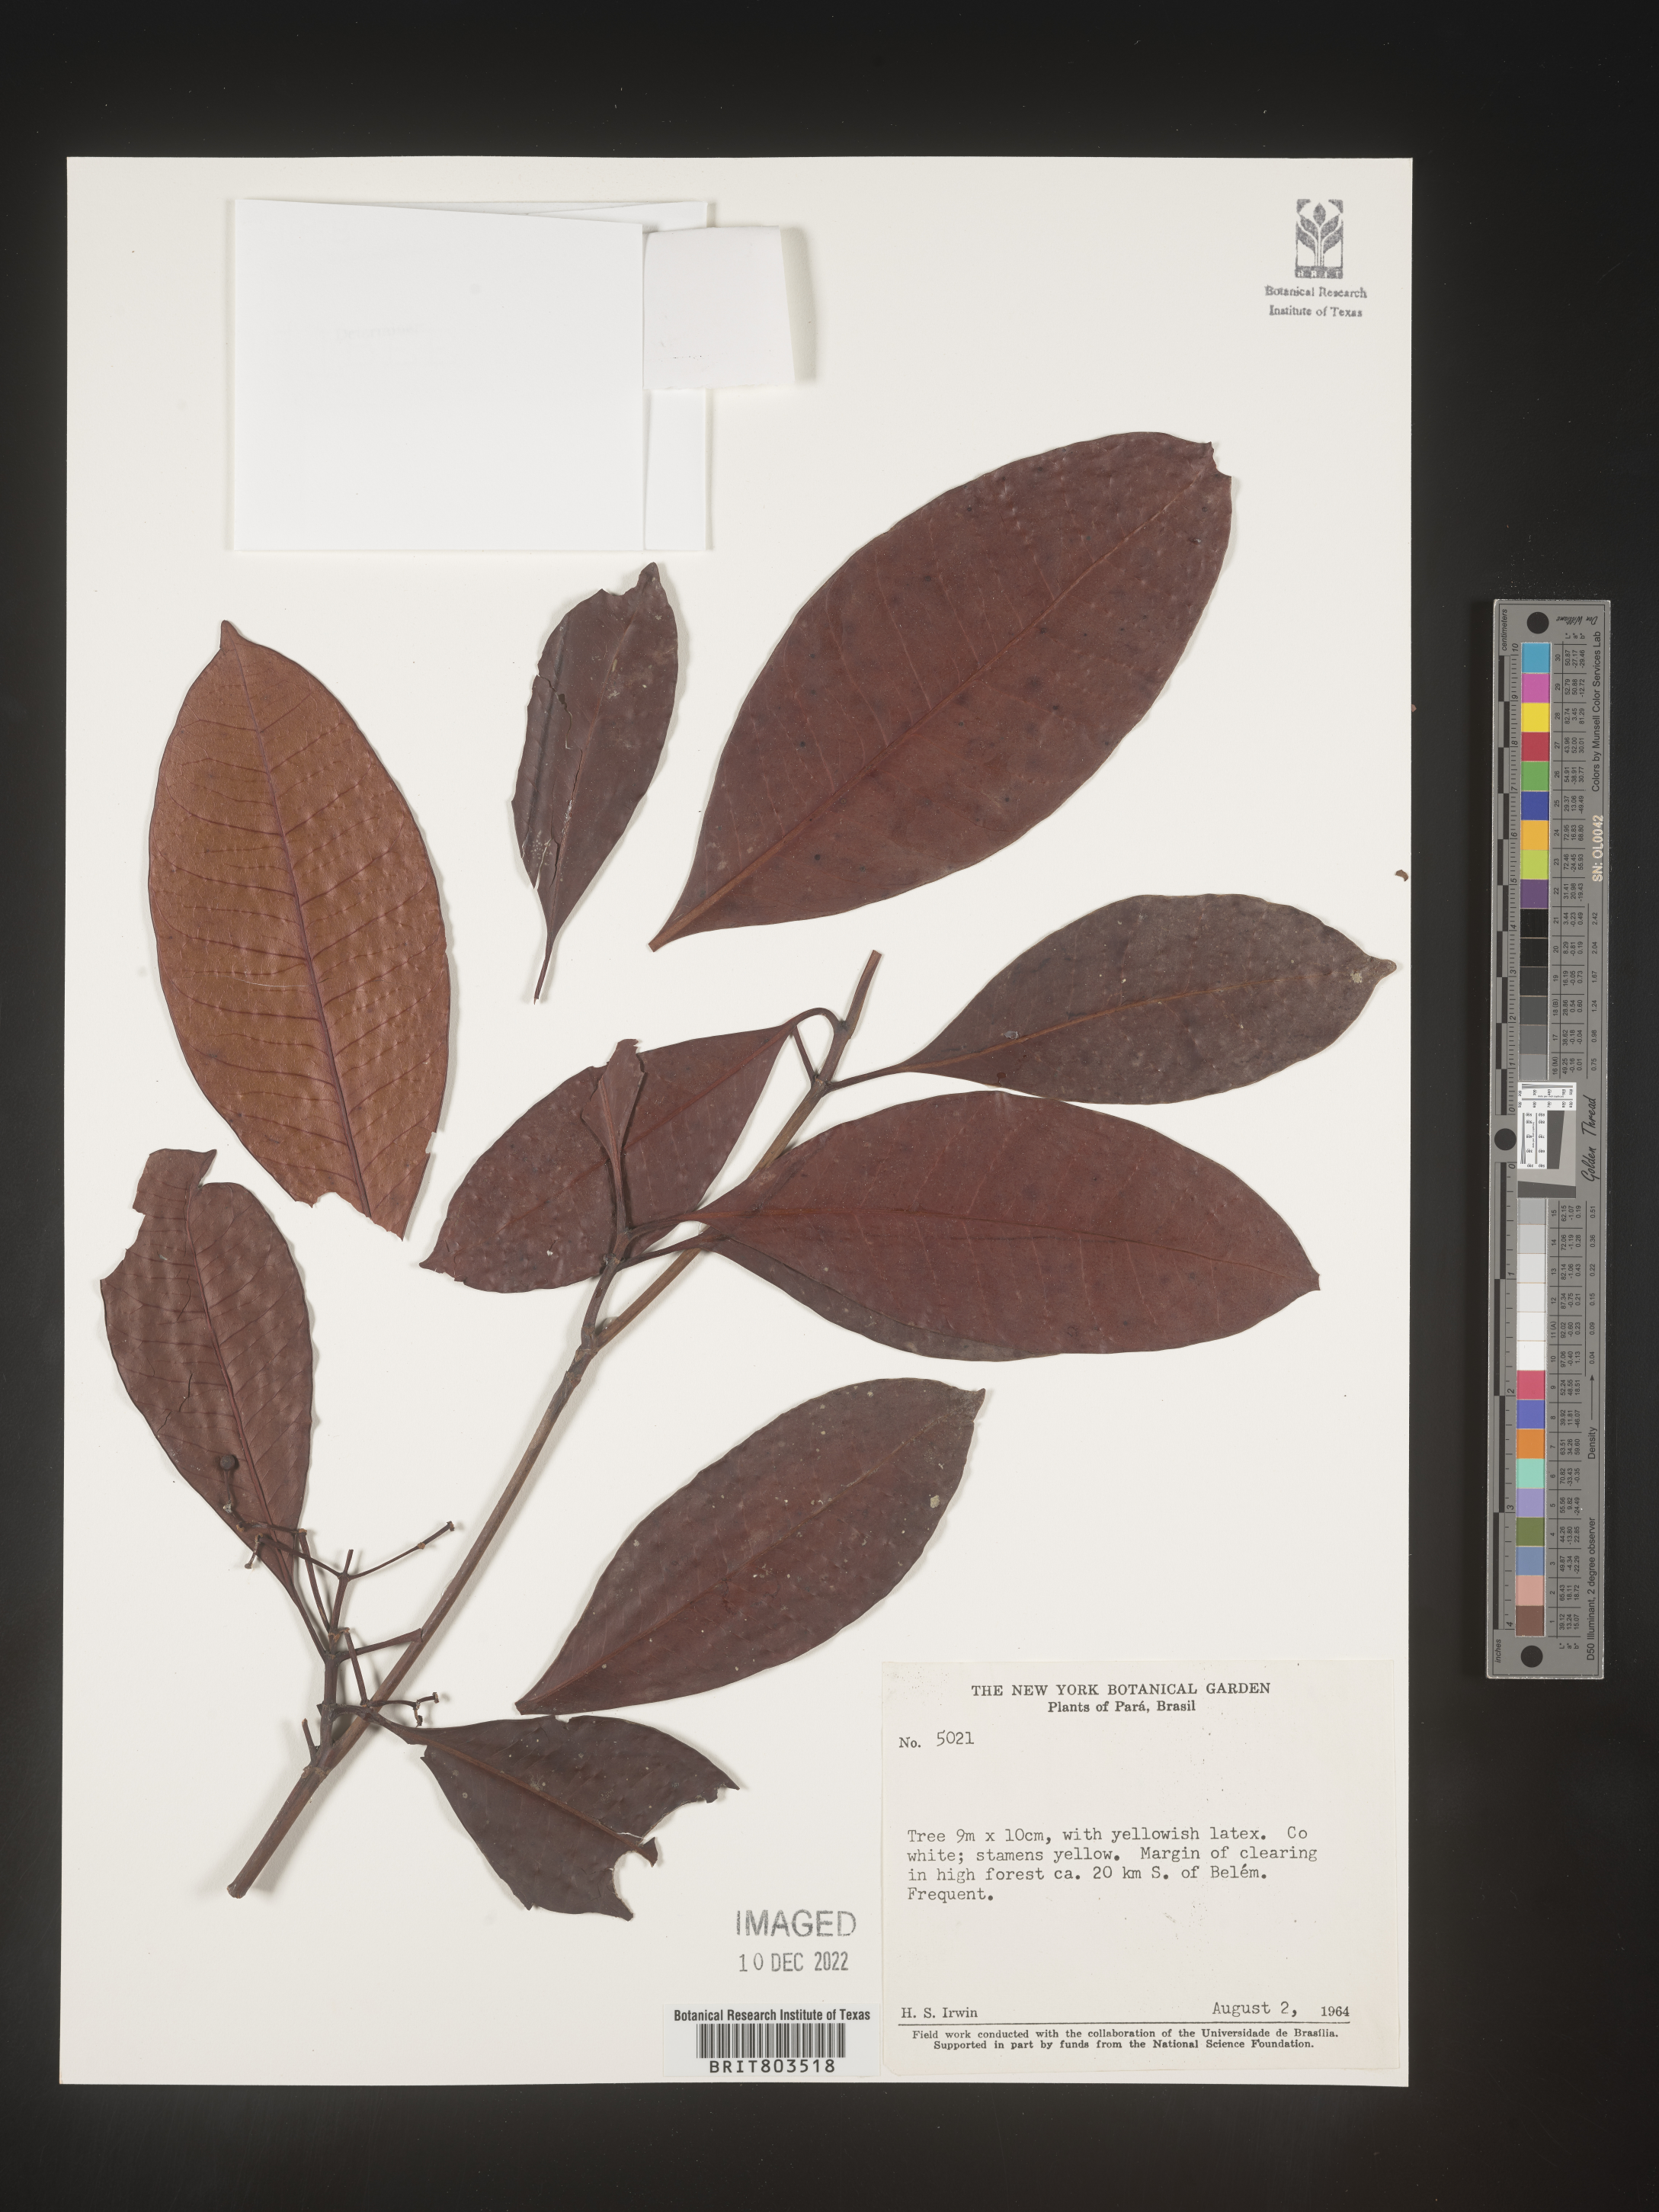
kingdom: Plantae
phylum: Tracheophyta
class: Magnoliopsida
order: Malpighiales
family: Clusiaceae
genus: Tovomita
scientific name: Tovomita
